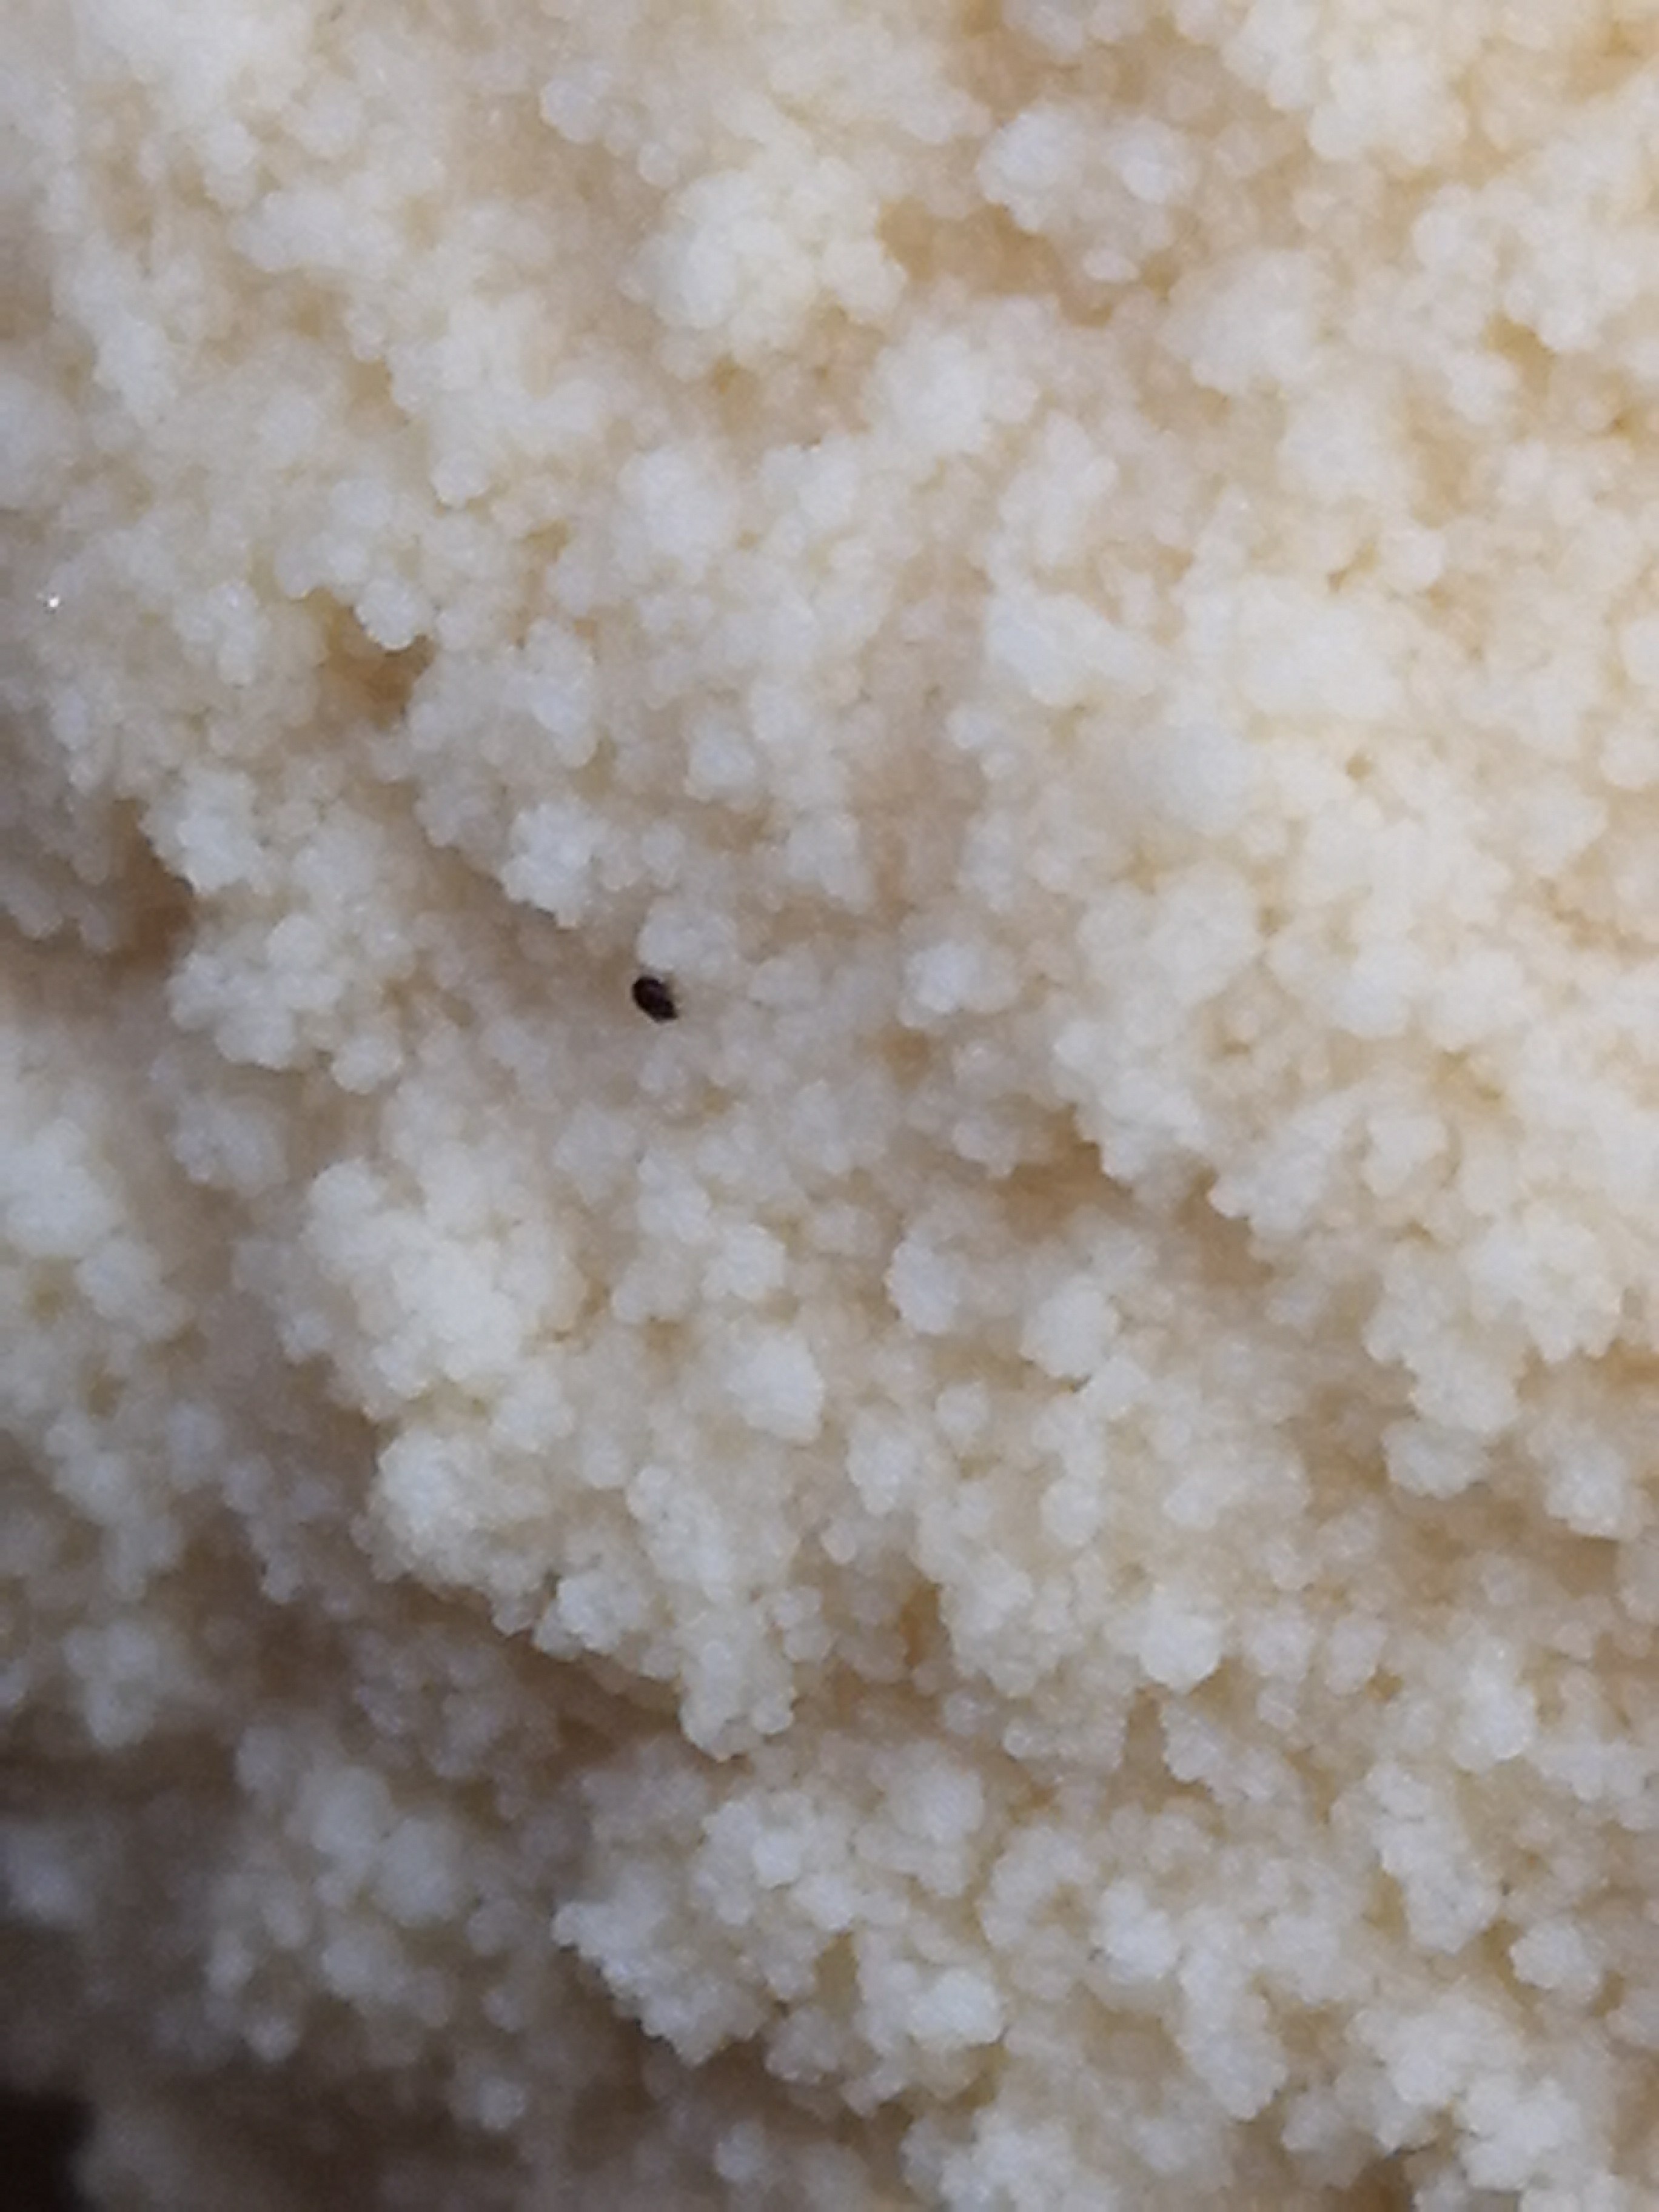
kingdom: Protozoa
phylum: Mycetozoa
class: Myxomycetes
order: Cribrariales
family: Tubiferaceae
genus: Reticularia
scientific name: Reticularia lycoperdon
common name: skinnende støvpude
